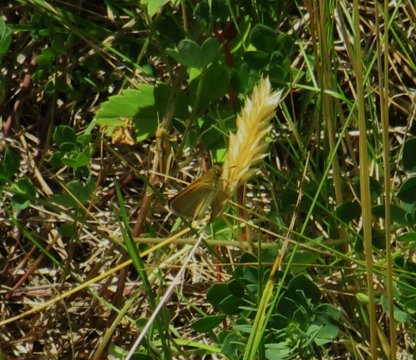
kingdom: Animalia
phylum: Arthropoda
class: Insecta
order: Lepidoptera
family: Hesperiidae
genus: Thymelicus
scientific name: Thymelicus lineola
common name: European Skipper
